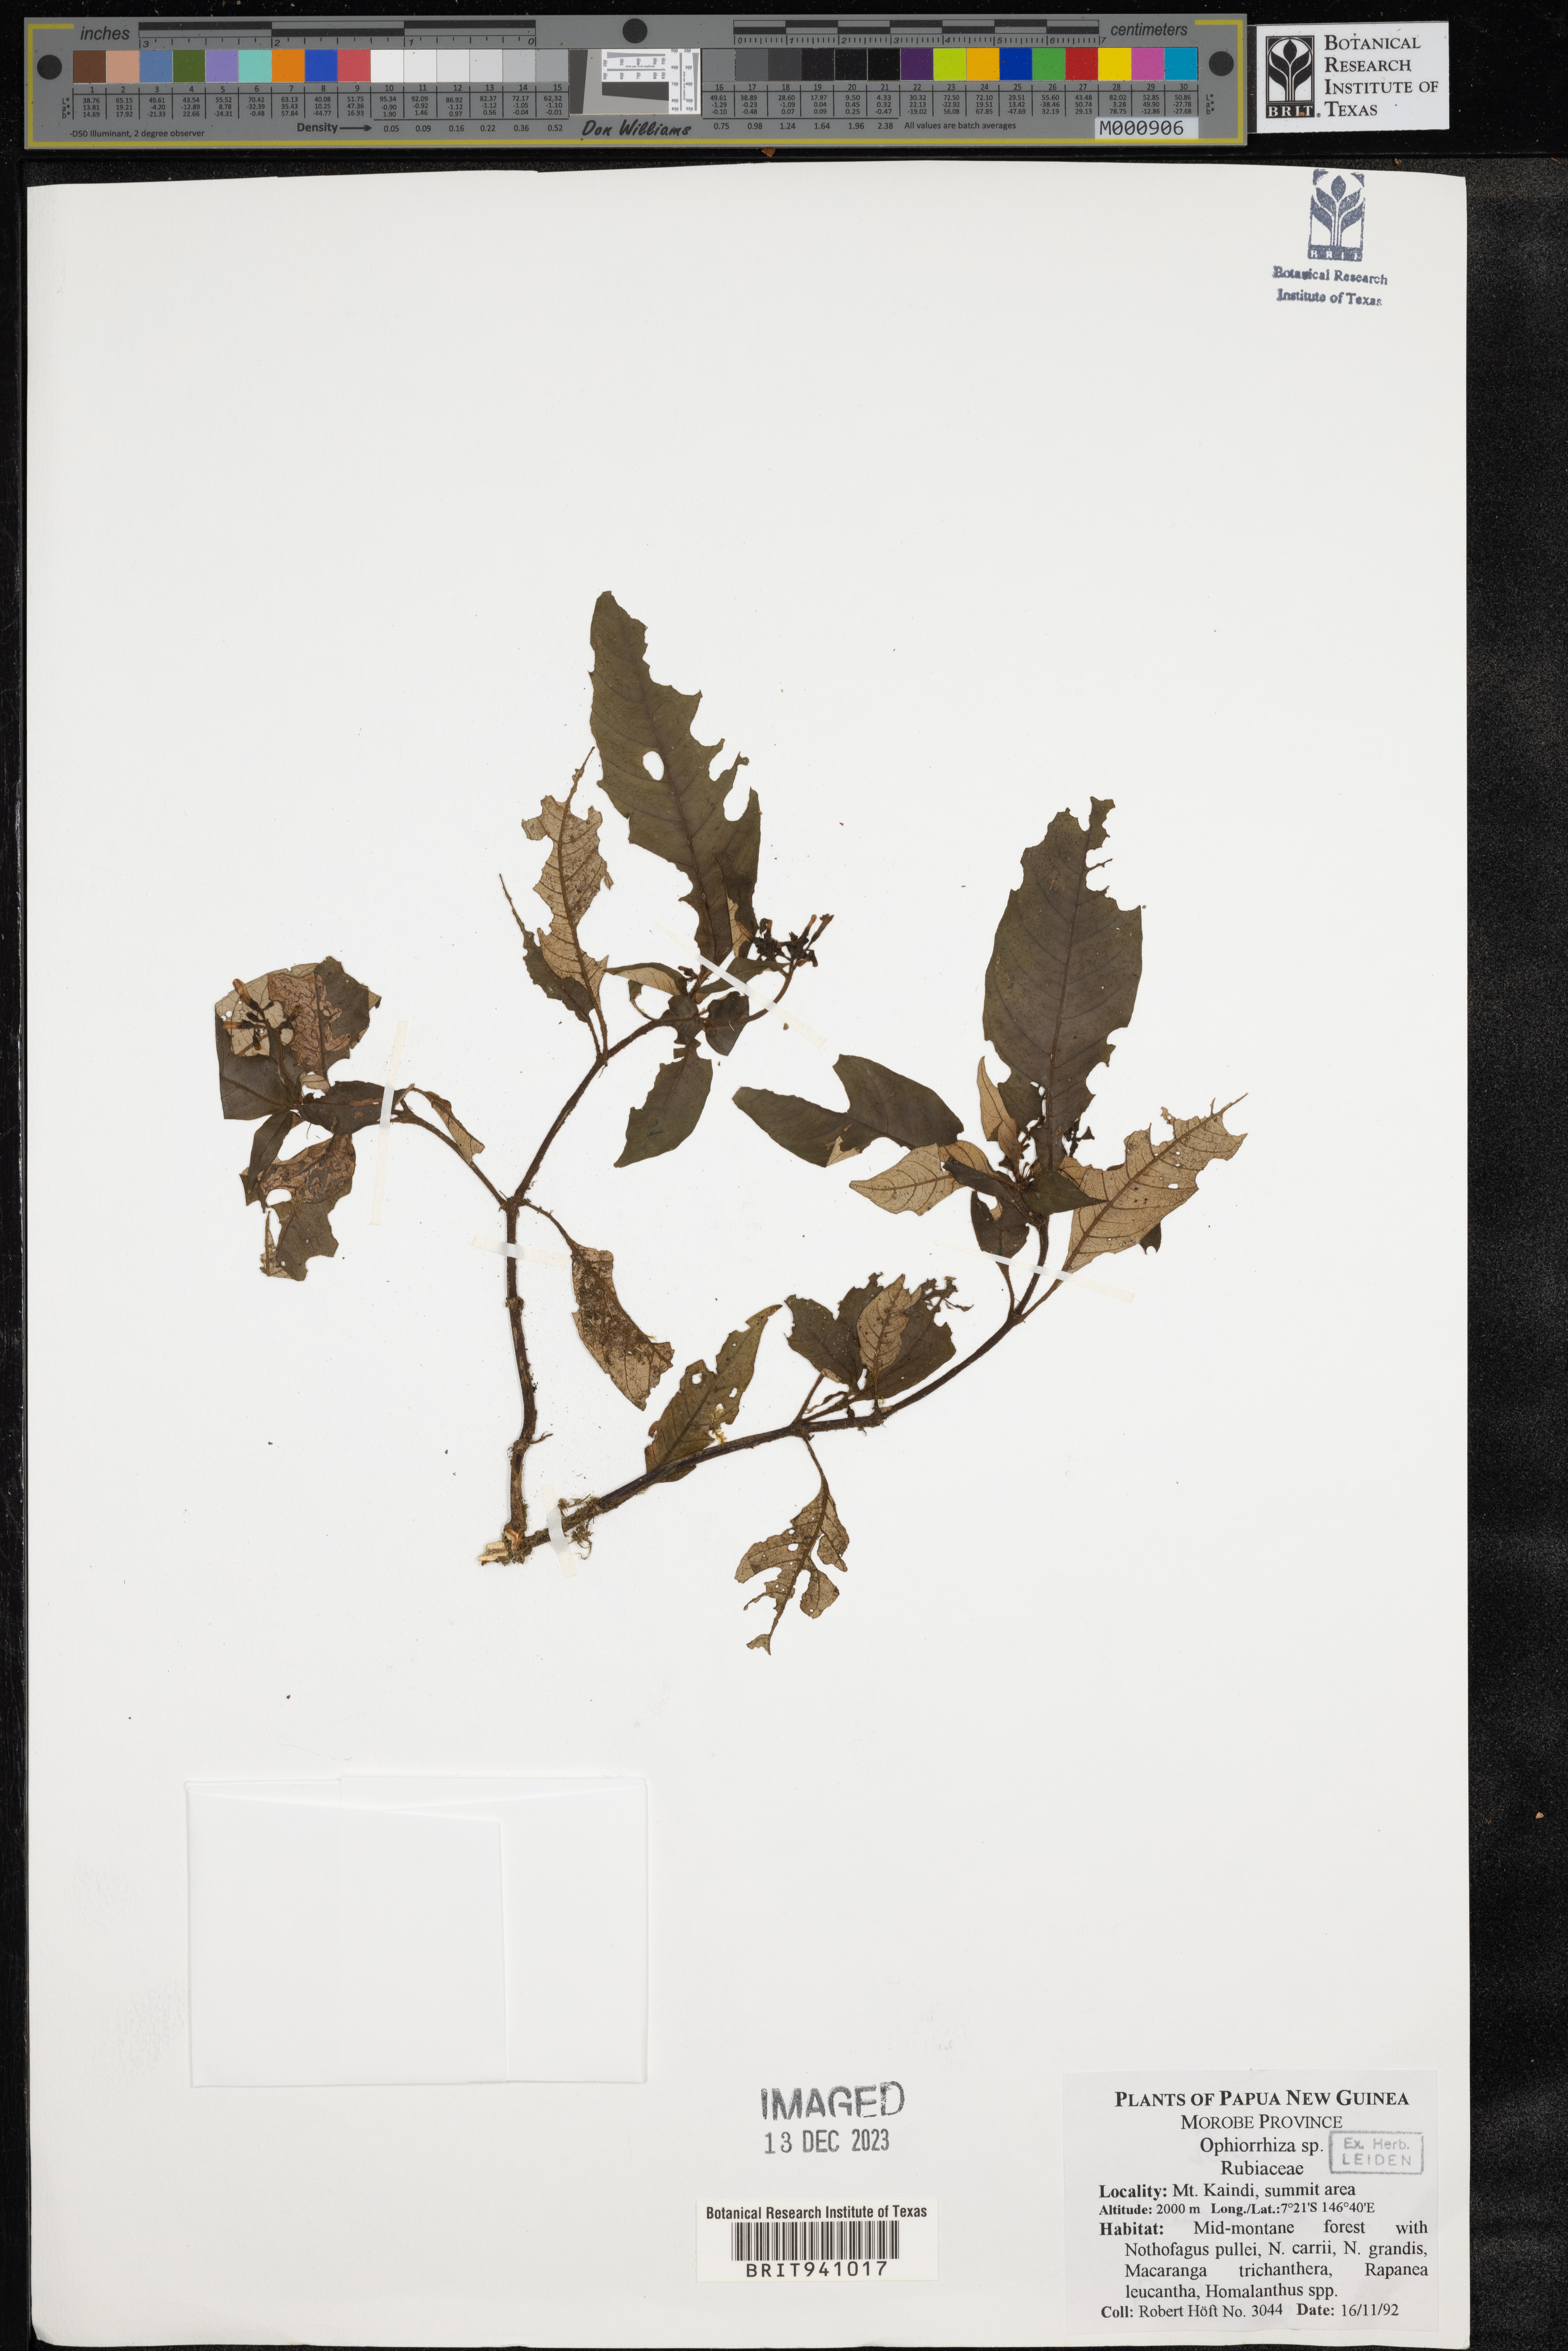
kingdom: Plantae
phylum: Tracheophyta
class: Magnoliopsida
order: Gentianales
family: Rubiaceae
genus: Ophiorrhiza
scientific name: Ophiorrhiza
